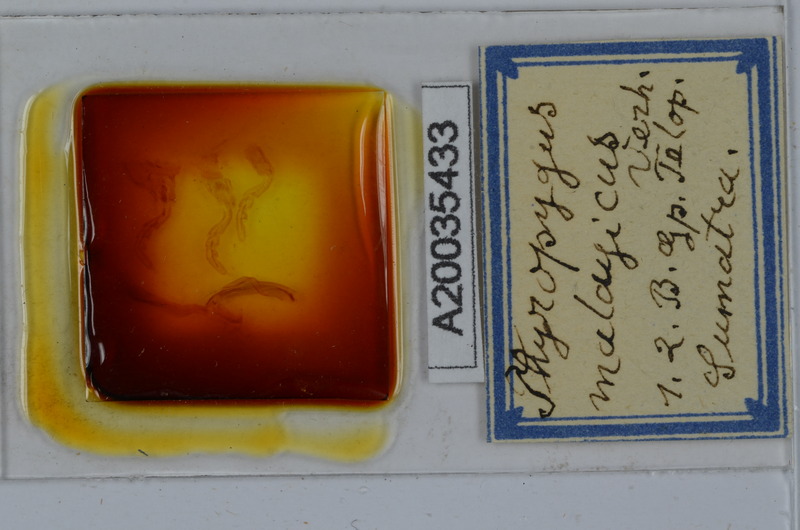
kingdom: Animalia
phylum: Arthropoda
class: Diplopoda
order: Spirostreptida
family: Harpagophoridae
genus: Thyropygus
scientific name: Thyropygus pachyurus
